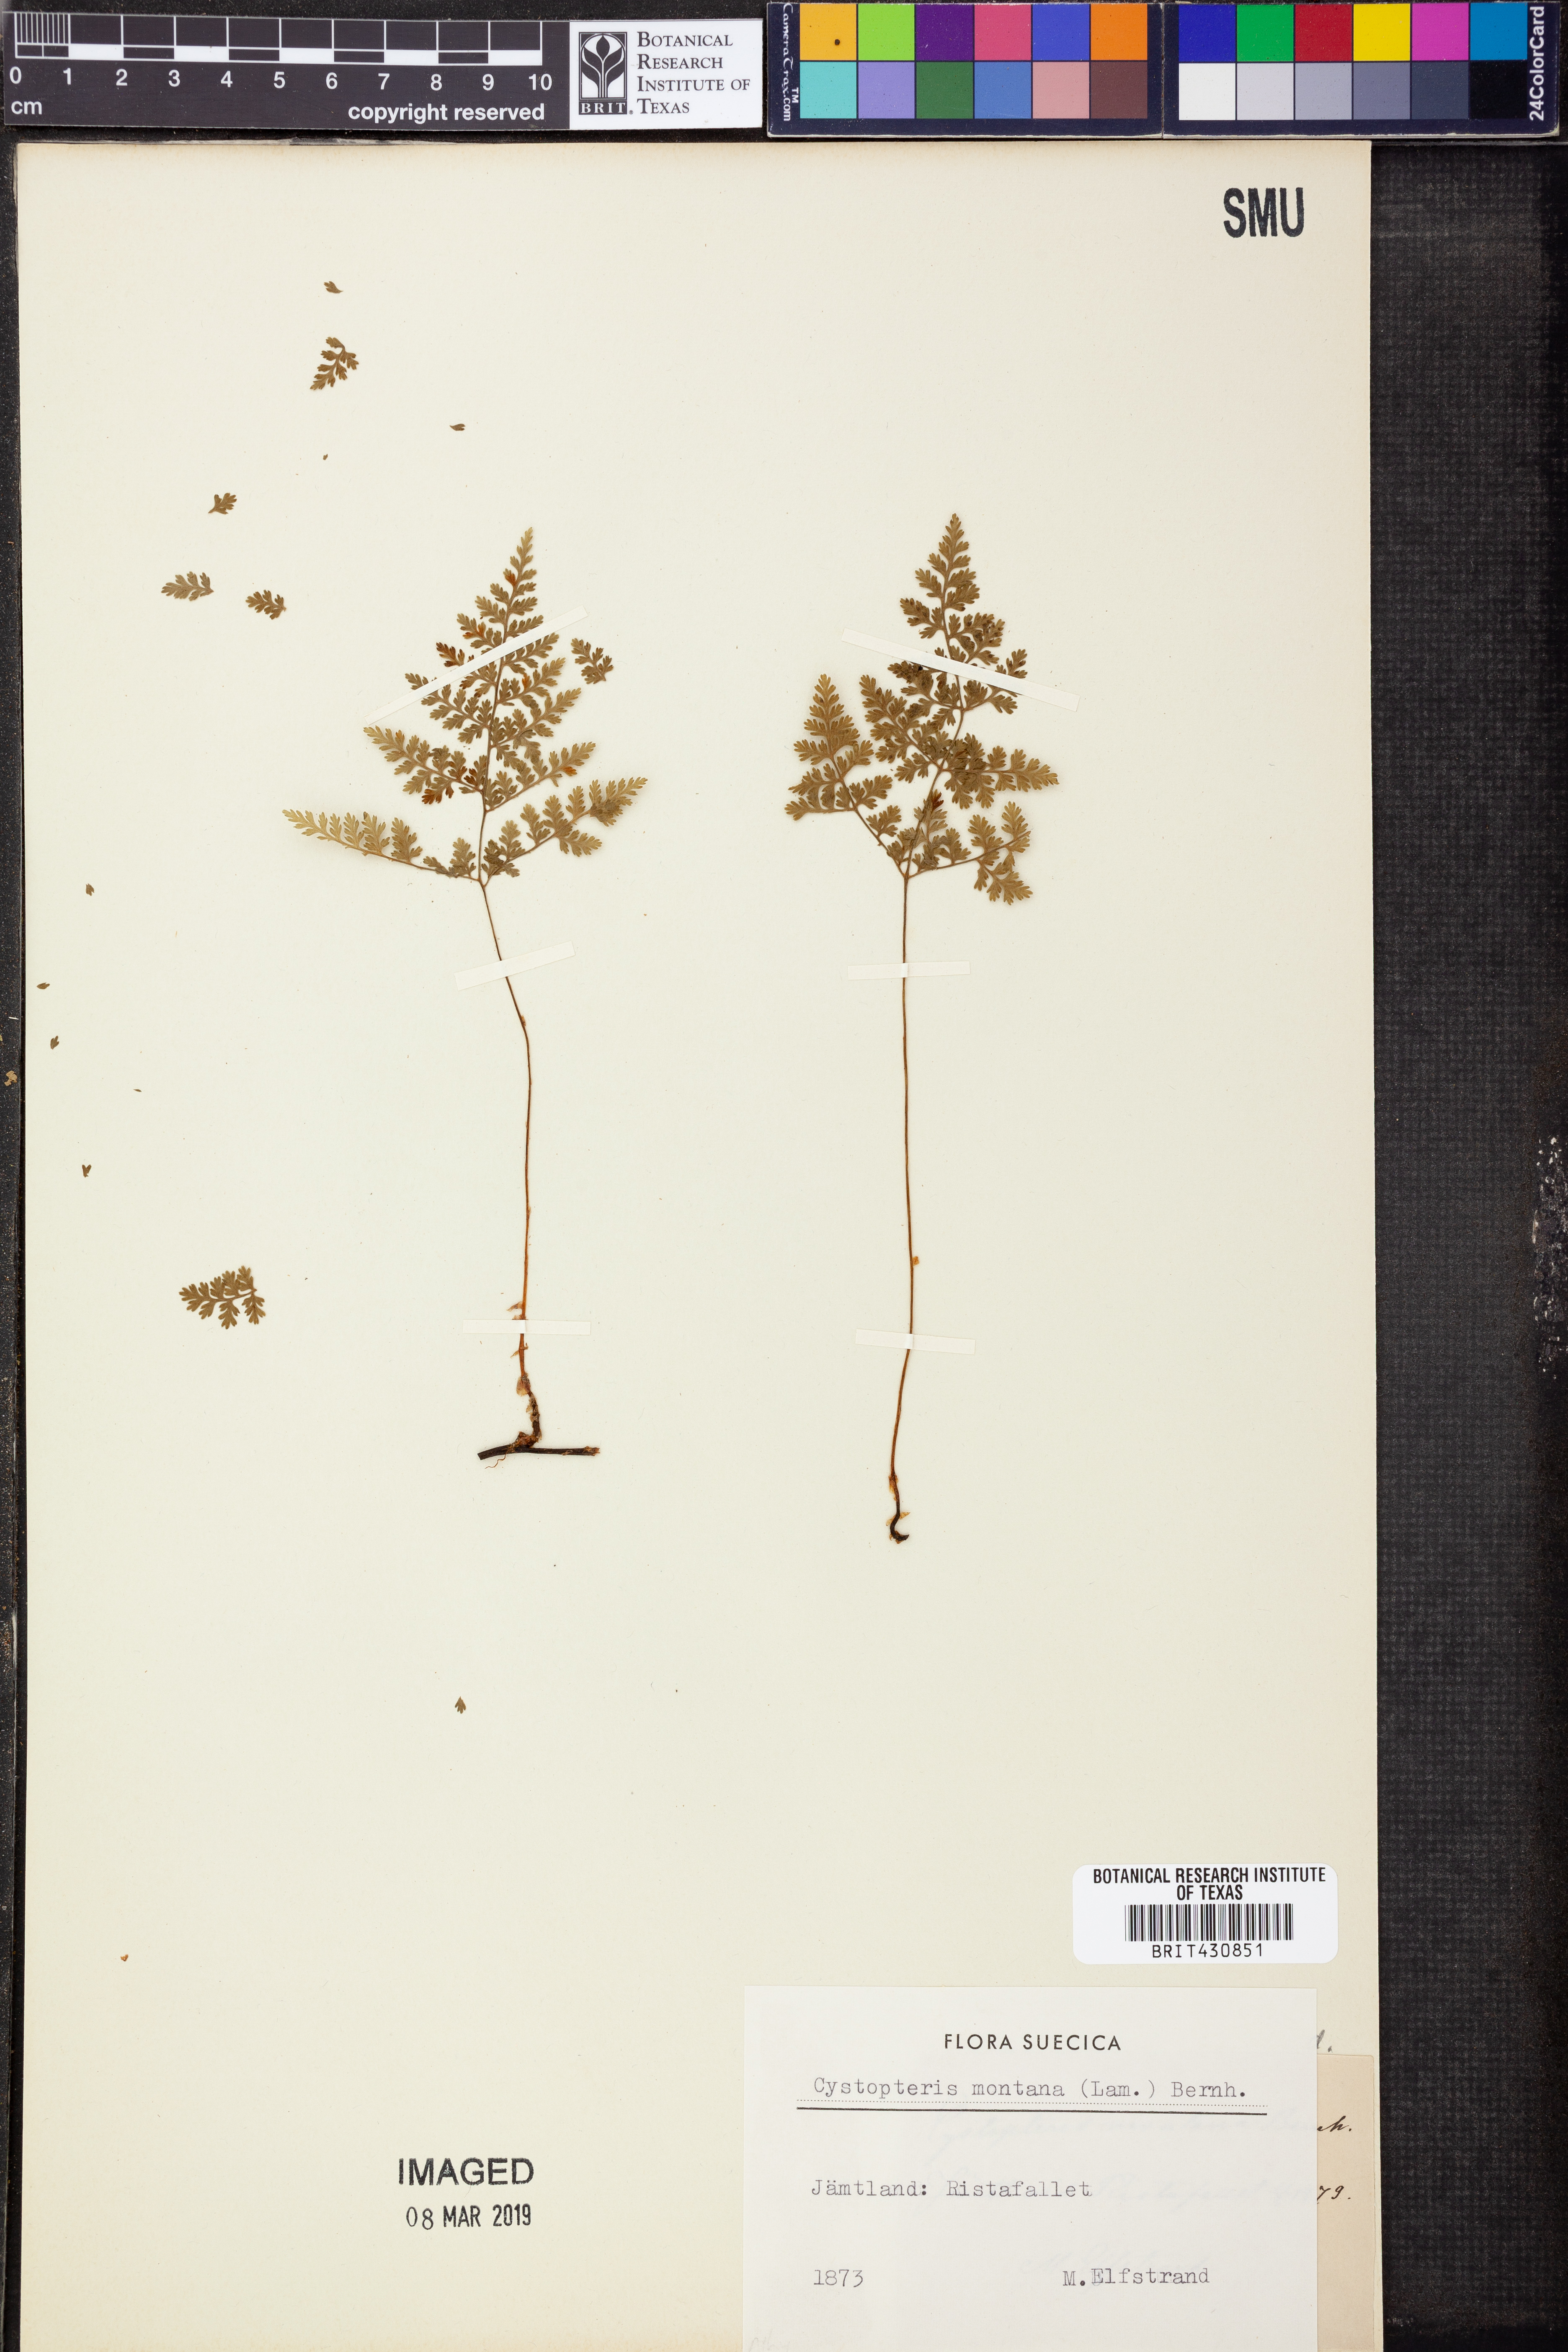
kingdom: Plantae
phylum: Tracheophyta
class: Polypodiopsida
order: Polypodiales
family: Cystopteridaceae
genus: Cystopteris
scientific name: Cystopteris montana
